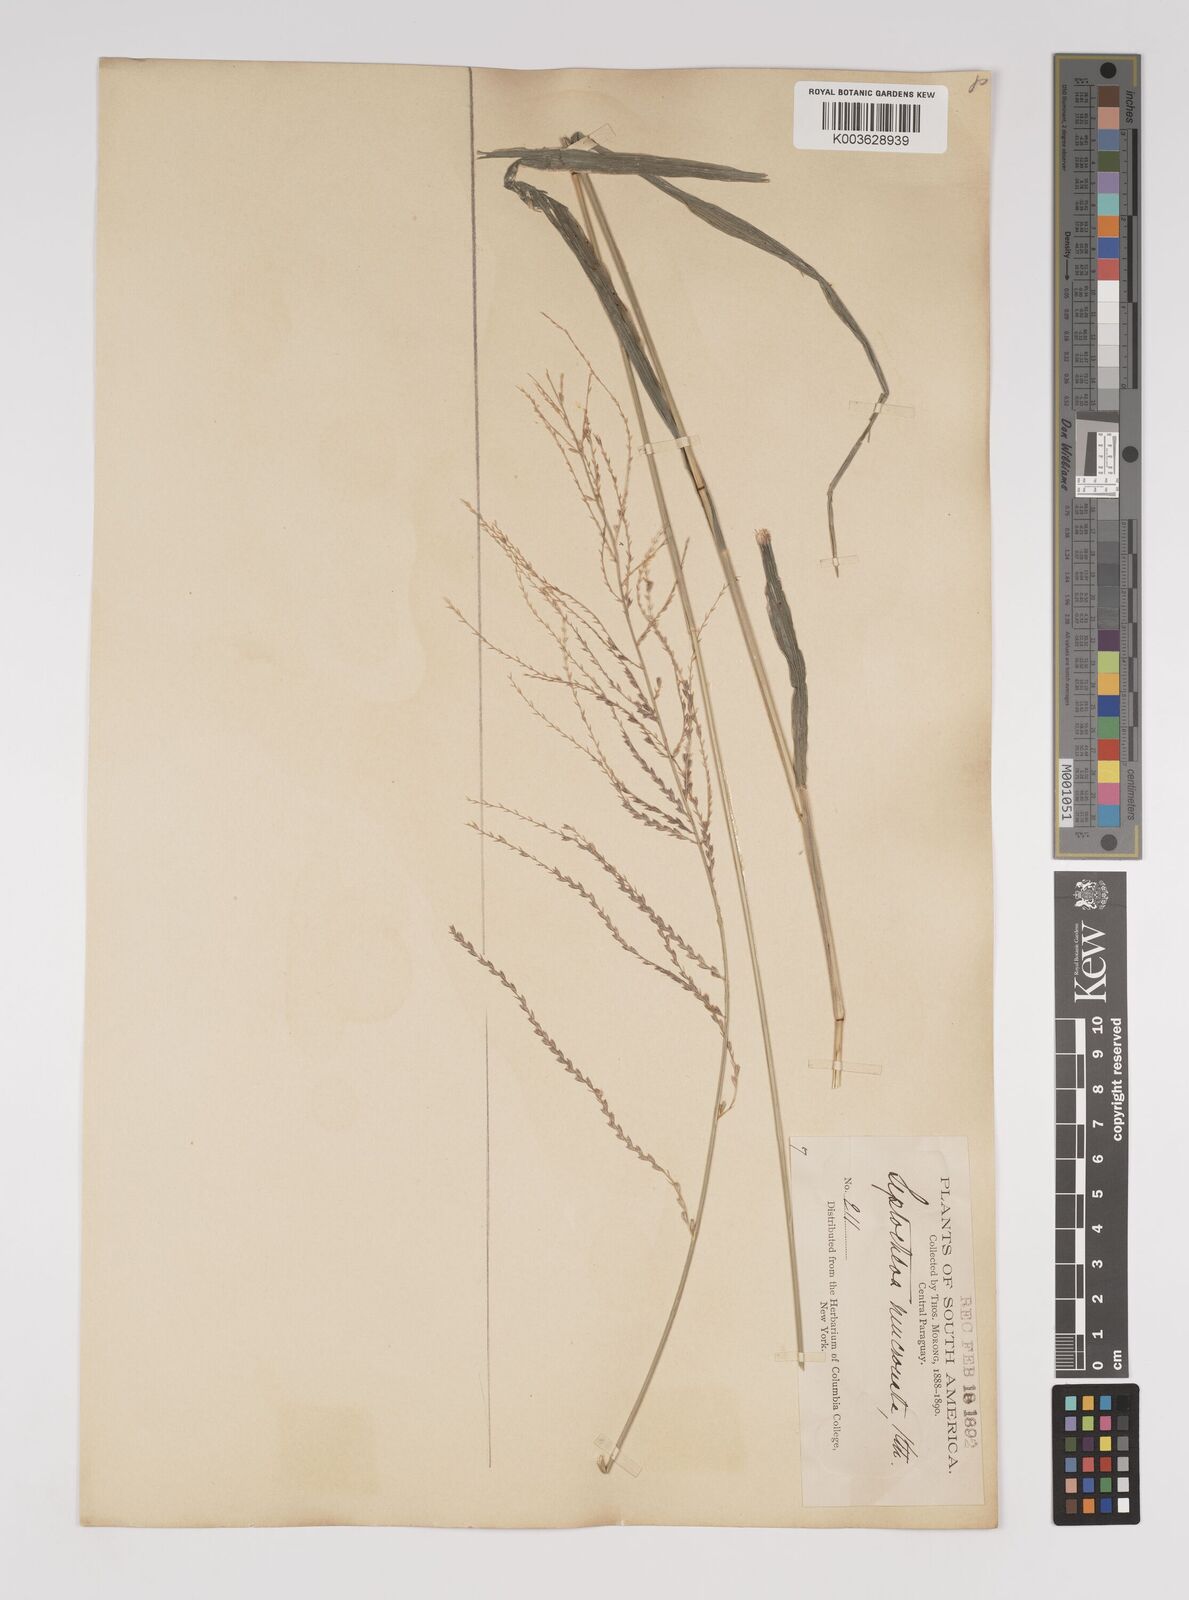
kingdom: Plantae
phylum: Tracheophyta
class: Liliopsida
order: Poales
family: Poaceae
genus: Leptochloa
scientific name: Leptochloa virgata
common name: Tropical sprangletop
